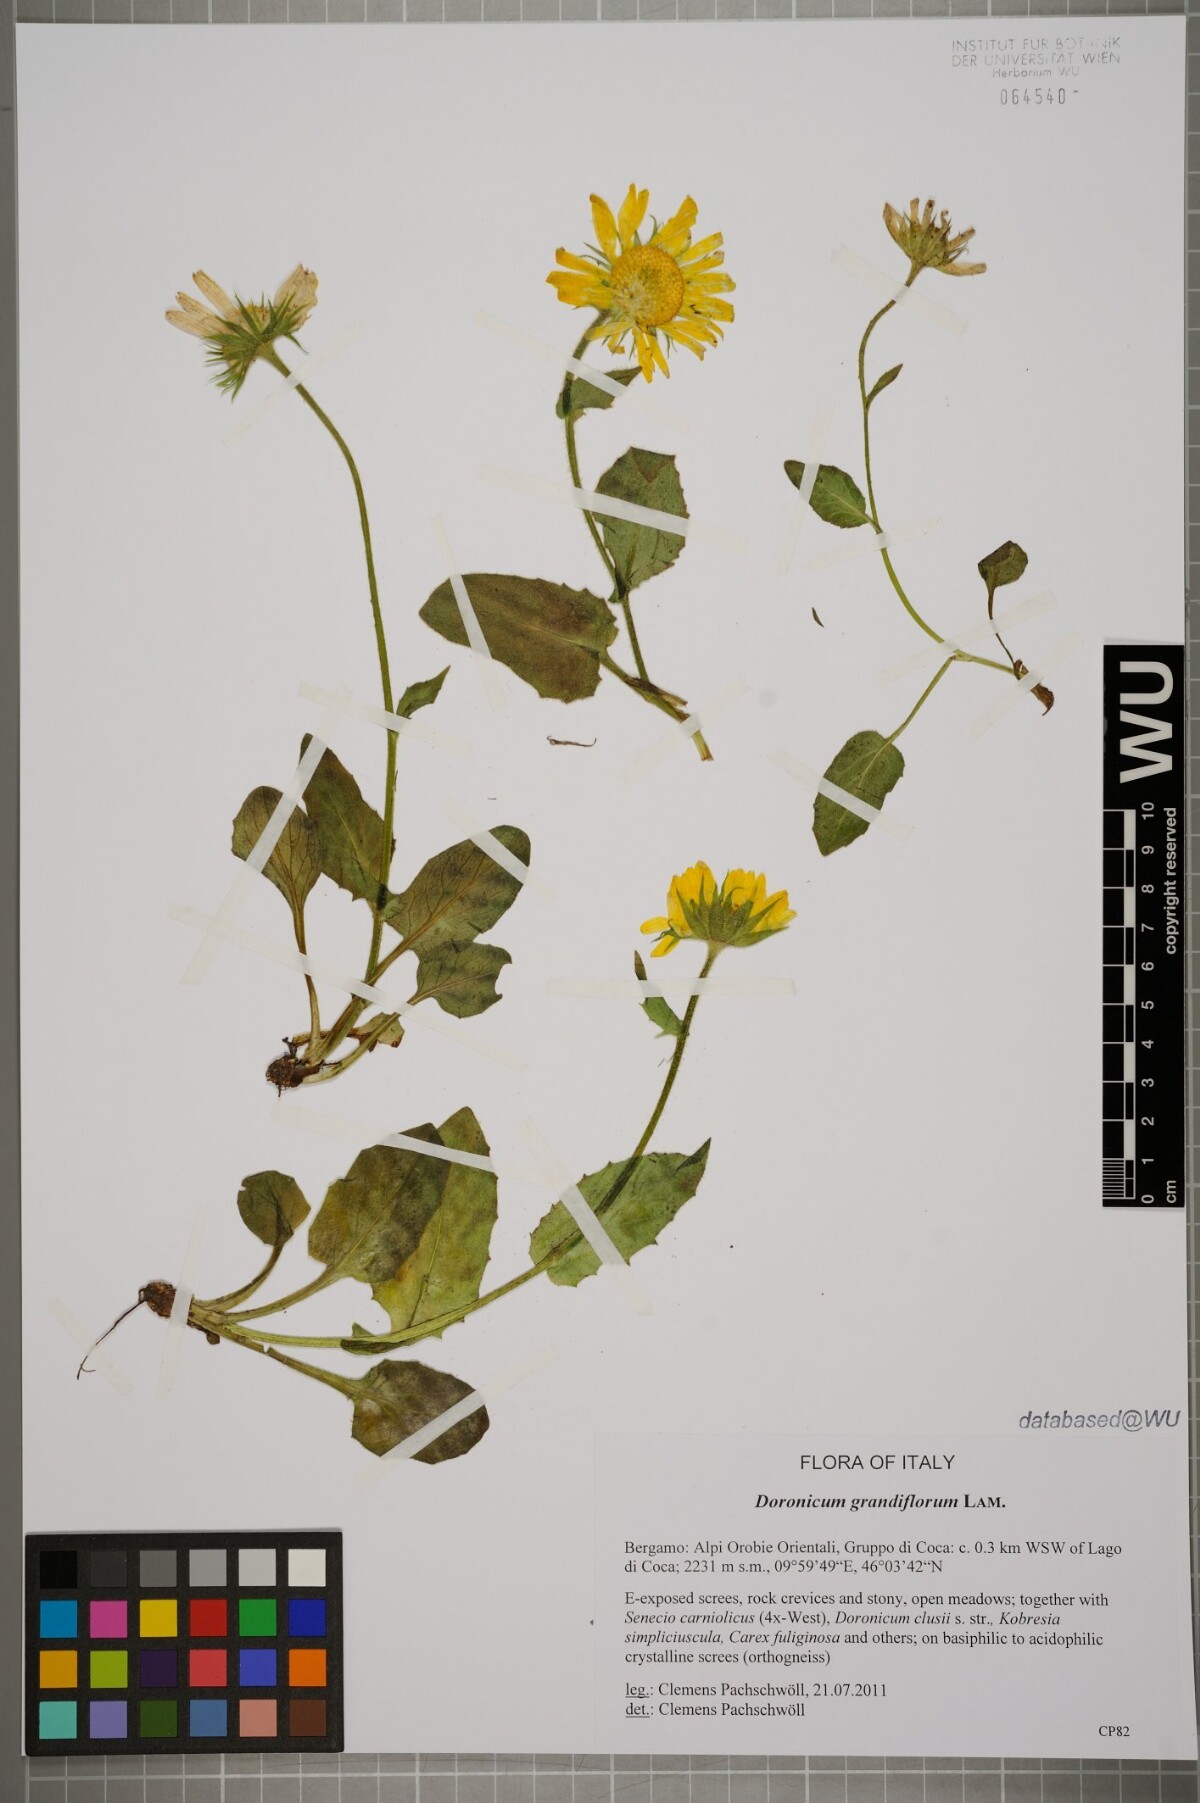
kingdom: Plantae
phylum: Tracheophyta
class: Magnoliopsida
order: Asterales
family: Asteraceae
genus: Doronicum
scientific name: Doronicum grandiflorum
